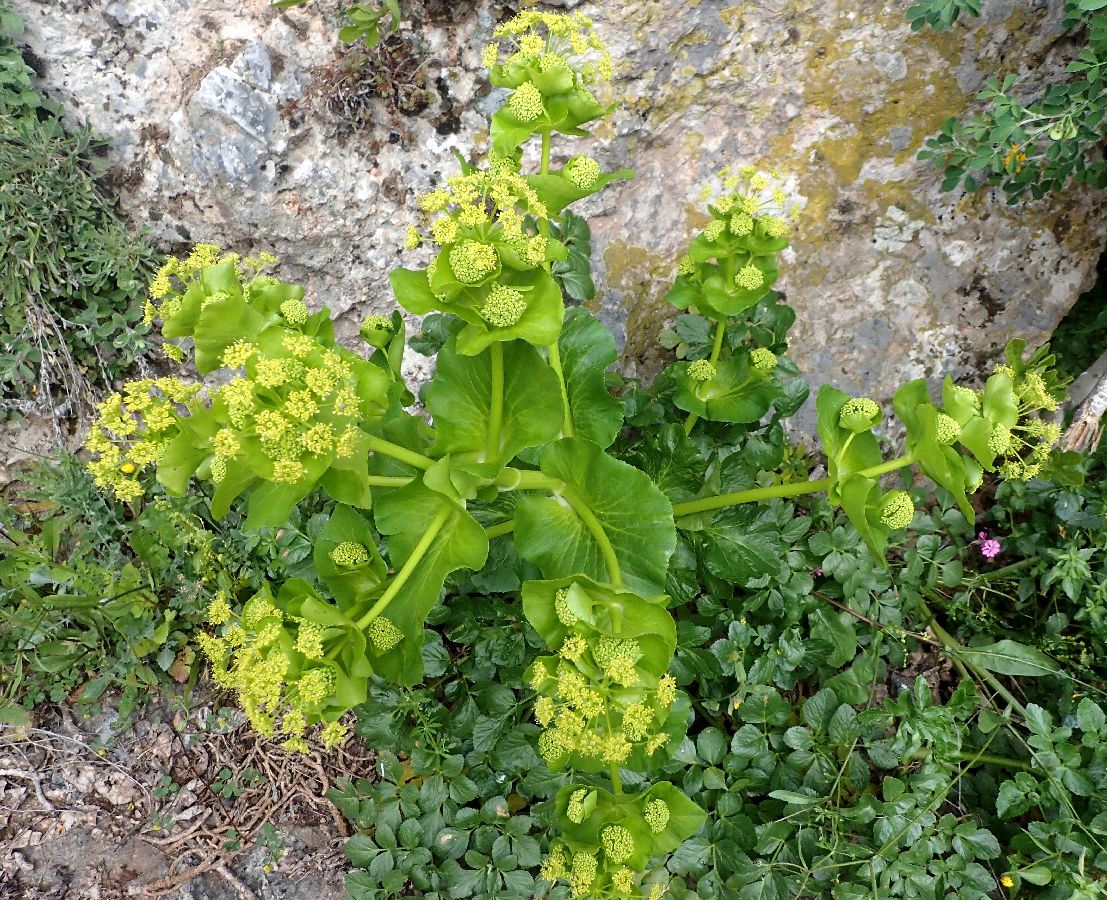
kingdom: Plantae
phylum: Tracheophyta
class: Magnoliopsida
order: Apiales
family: Apiaceae
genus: Smyrnium
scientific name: Smyrnium perfoliatum
